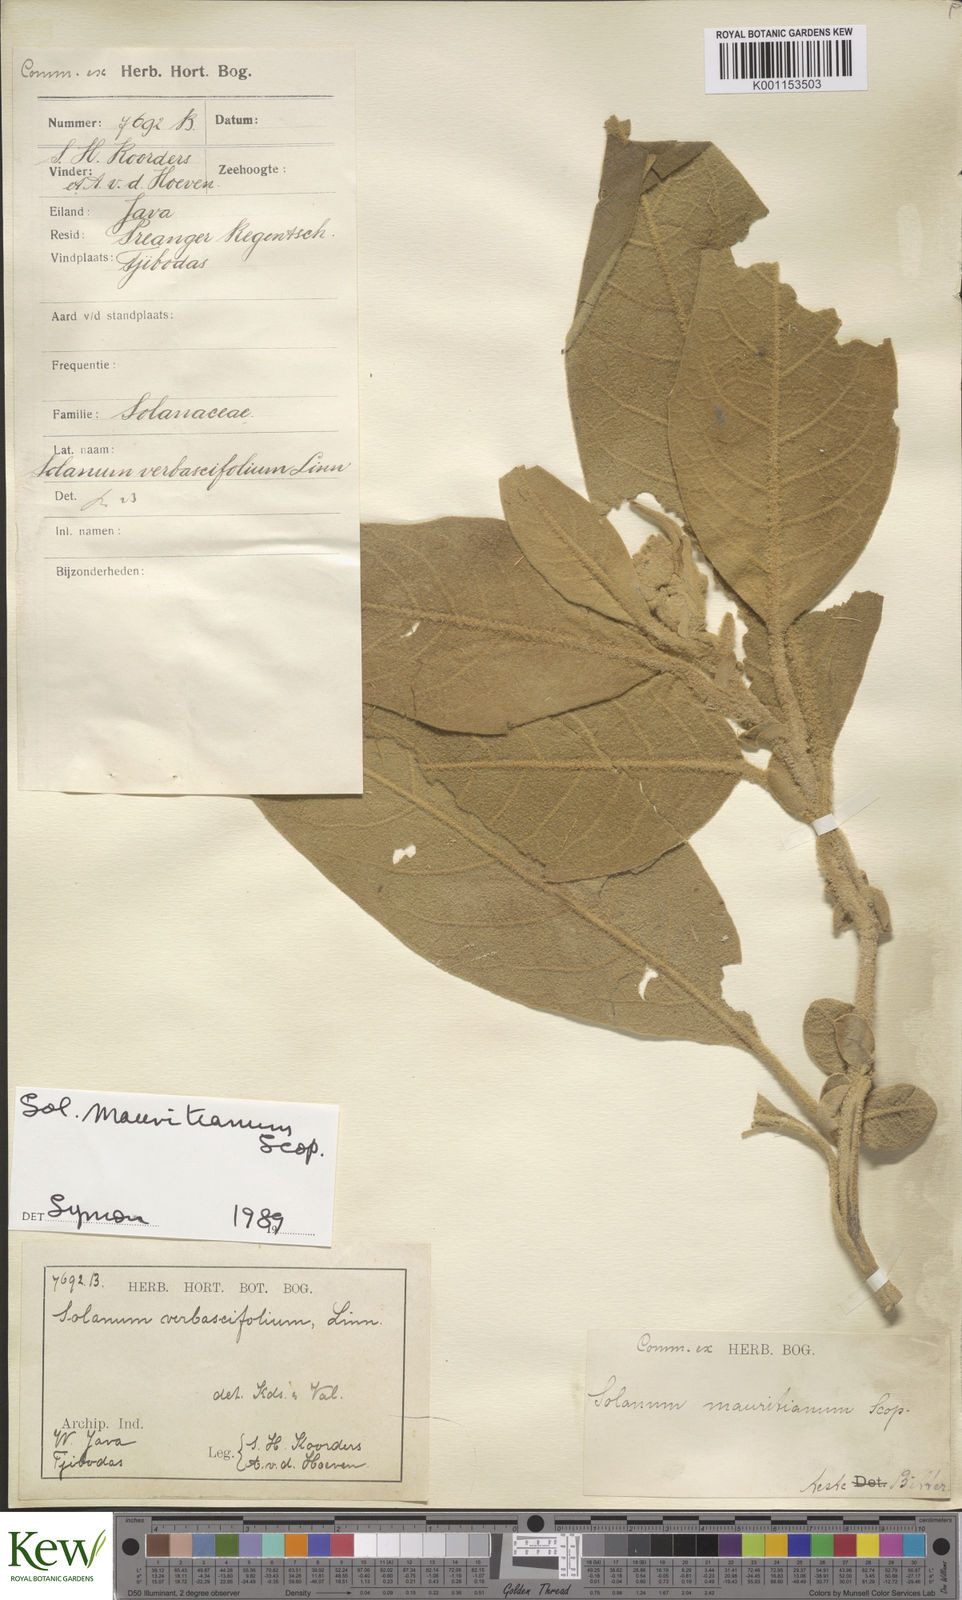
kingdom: Plantae
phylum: Tracheophyta
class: Magnoliopsida
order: Solanales
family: Solanaceae
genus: Solanum
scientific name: Solanum mauritianum
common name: Earleaf nightshade
